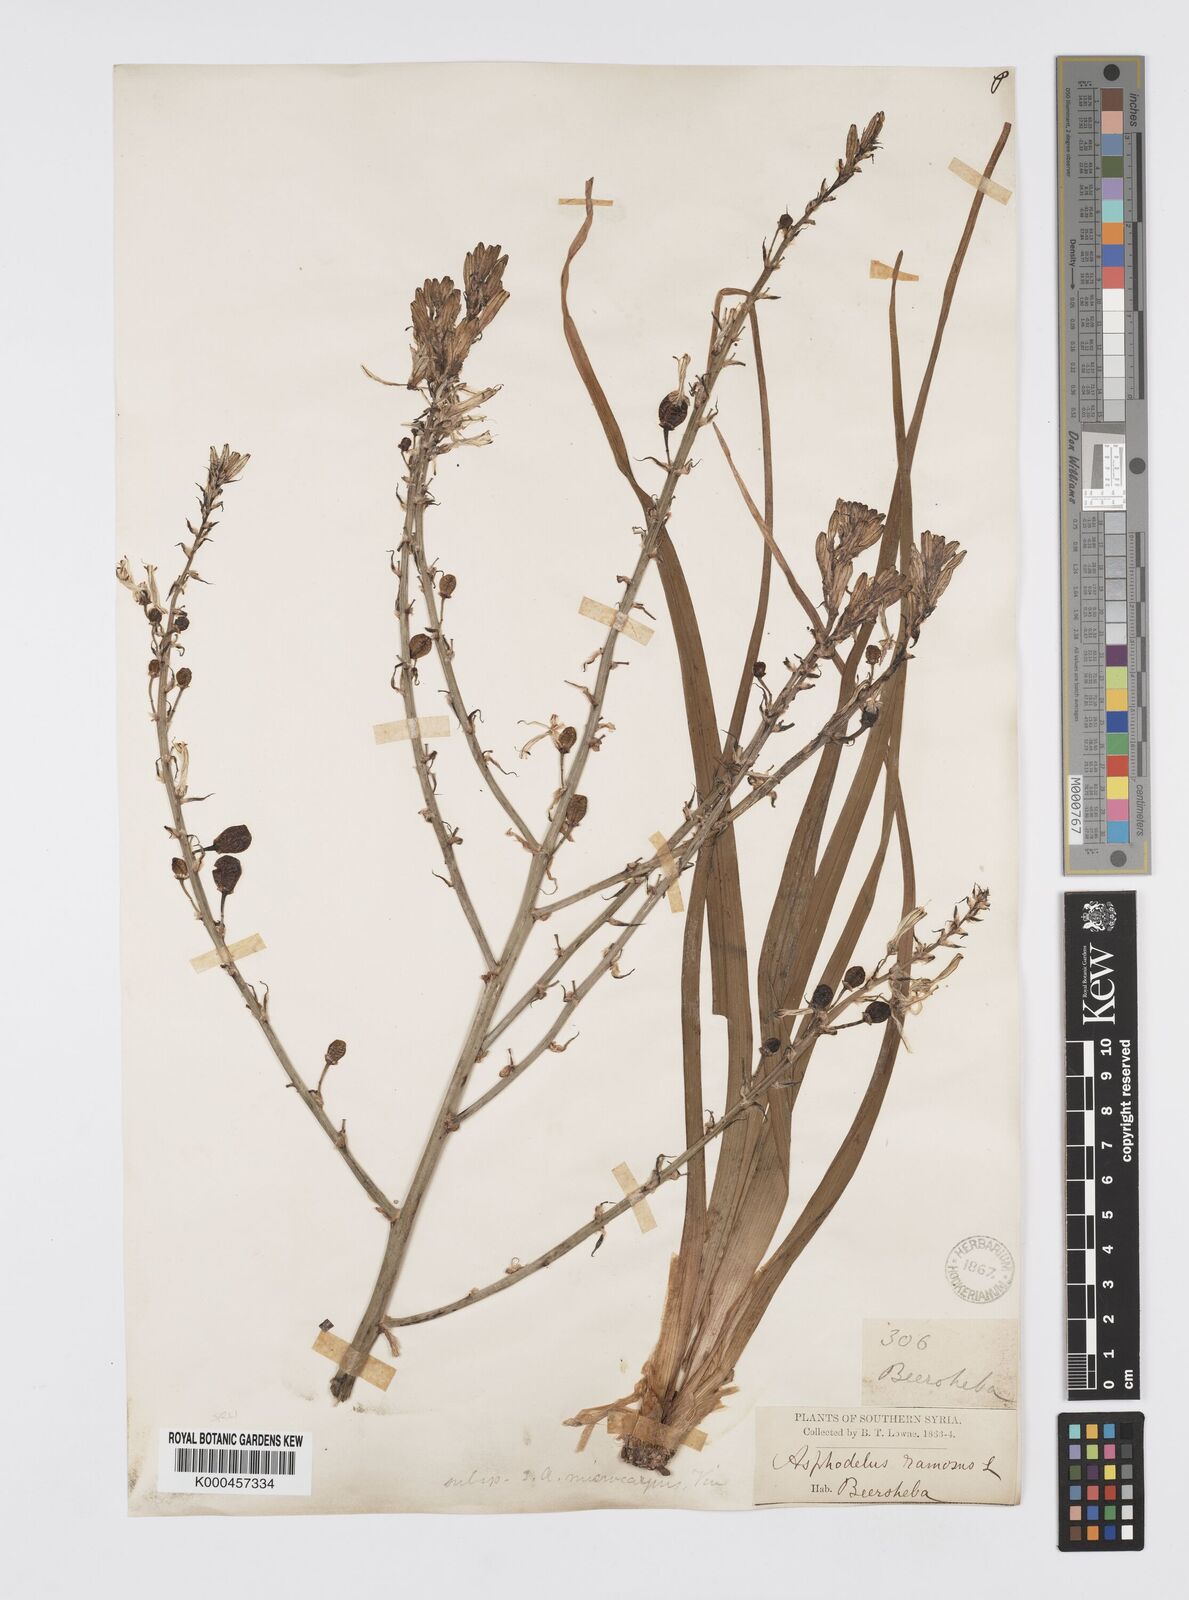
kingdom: Plantae
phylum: Tracheophyta
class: Liliopsida
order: Asparagales
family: Asphodelaceae
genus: Asphodelus
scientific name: Asphodelus aestivus
